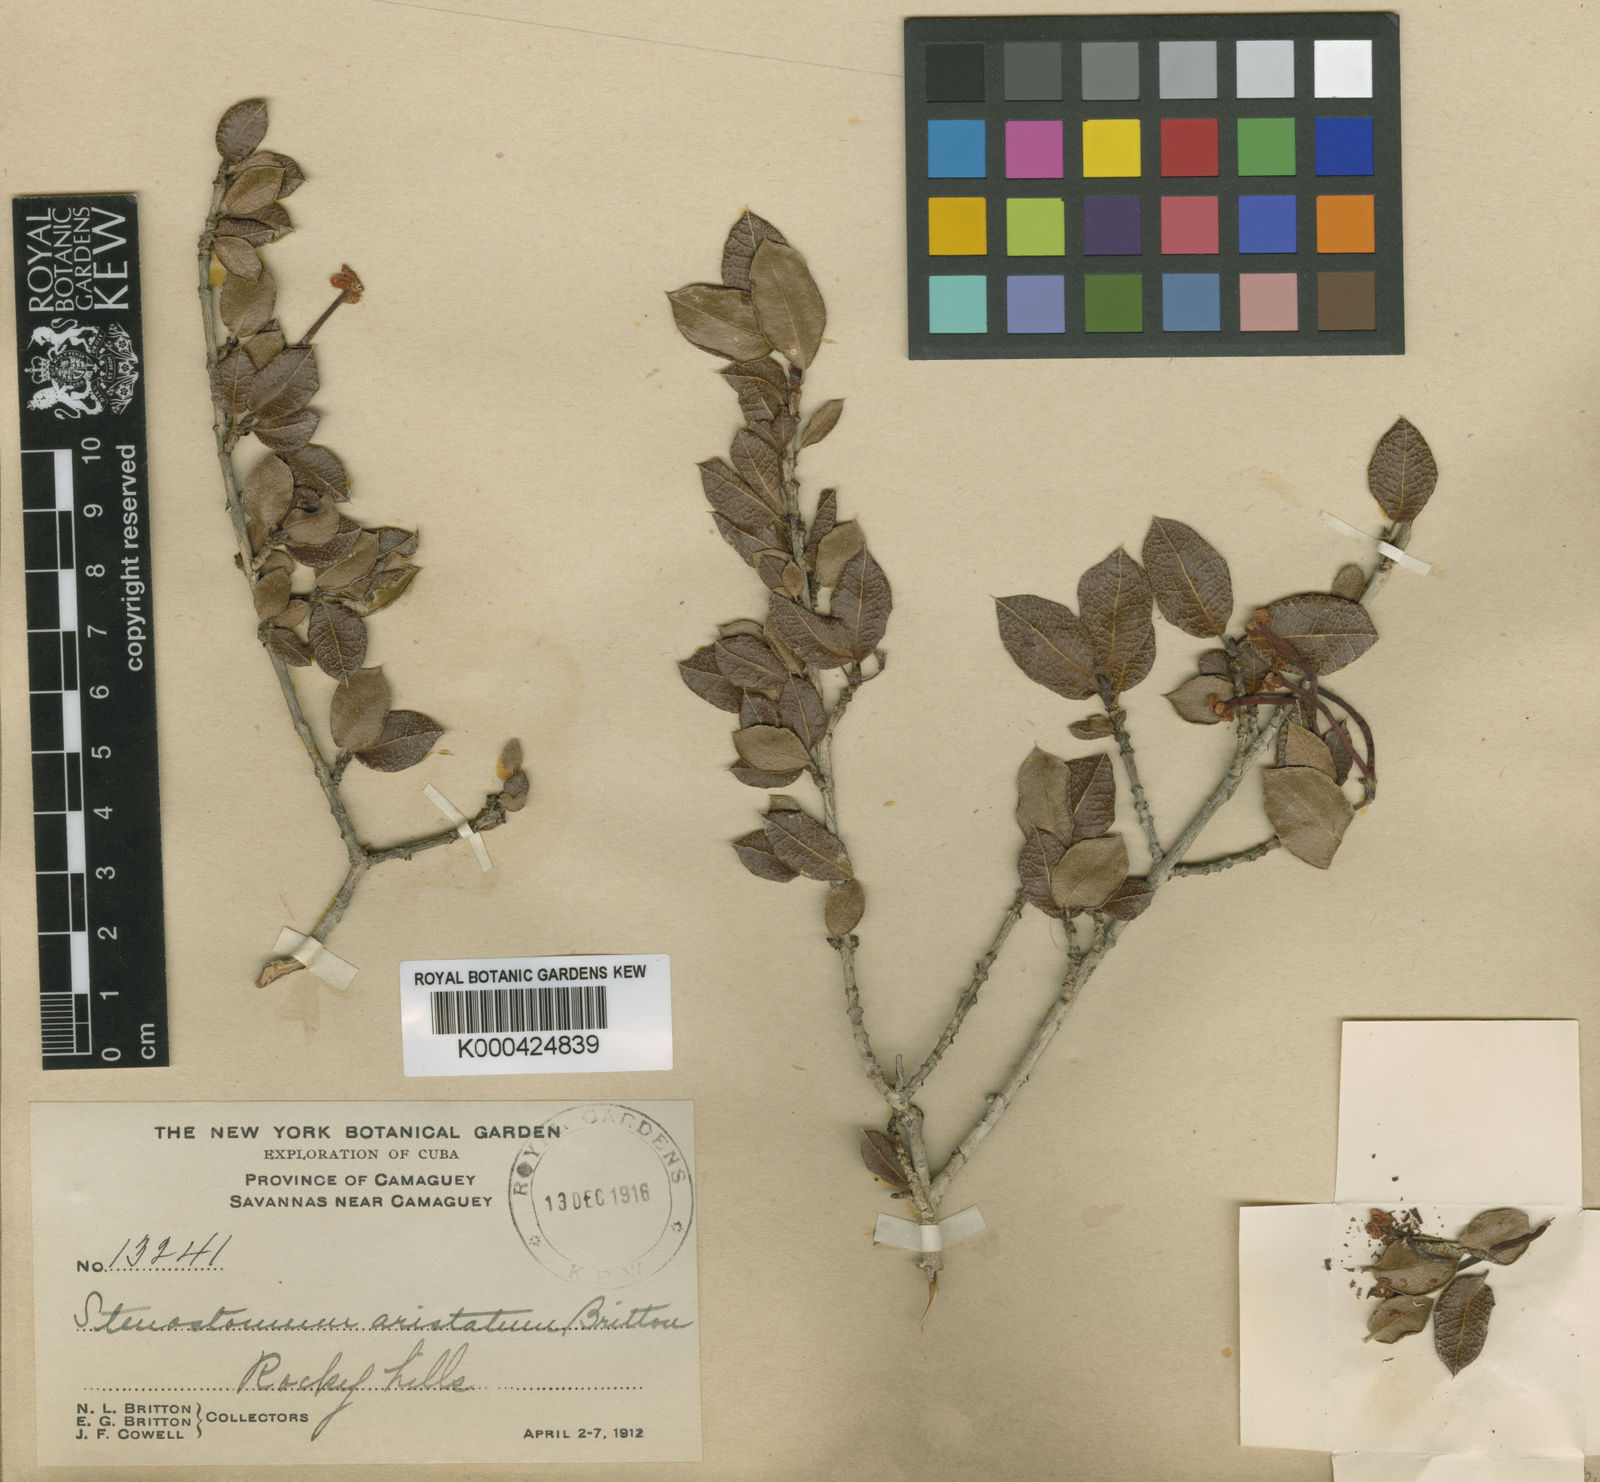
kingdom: Plantae
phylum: Tracheophyta
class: Magnoliopsida
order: Gentianales
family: Rubiaceae
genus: Stenostomum
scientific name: Stenostomum aristatum
